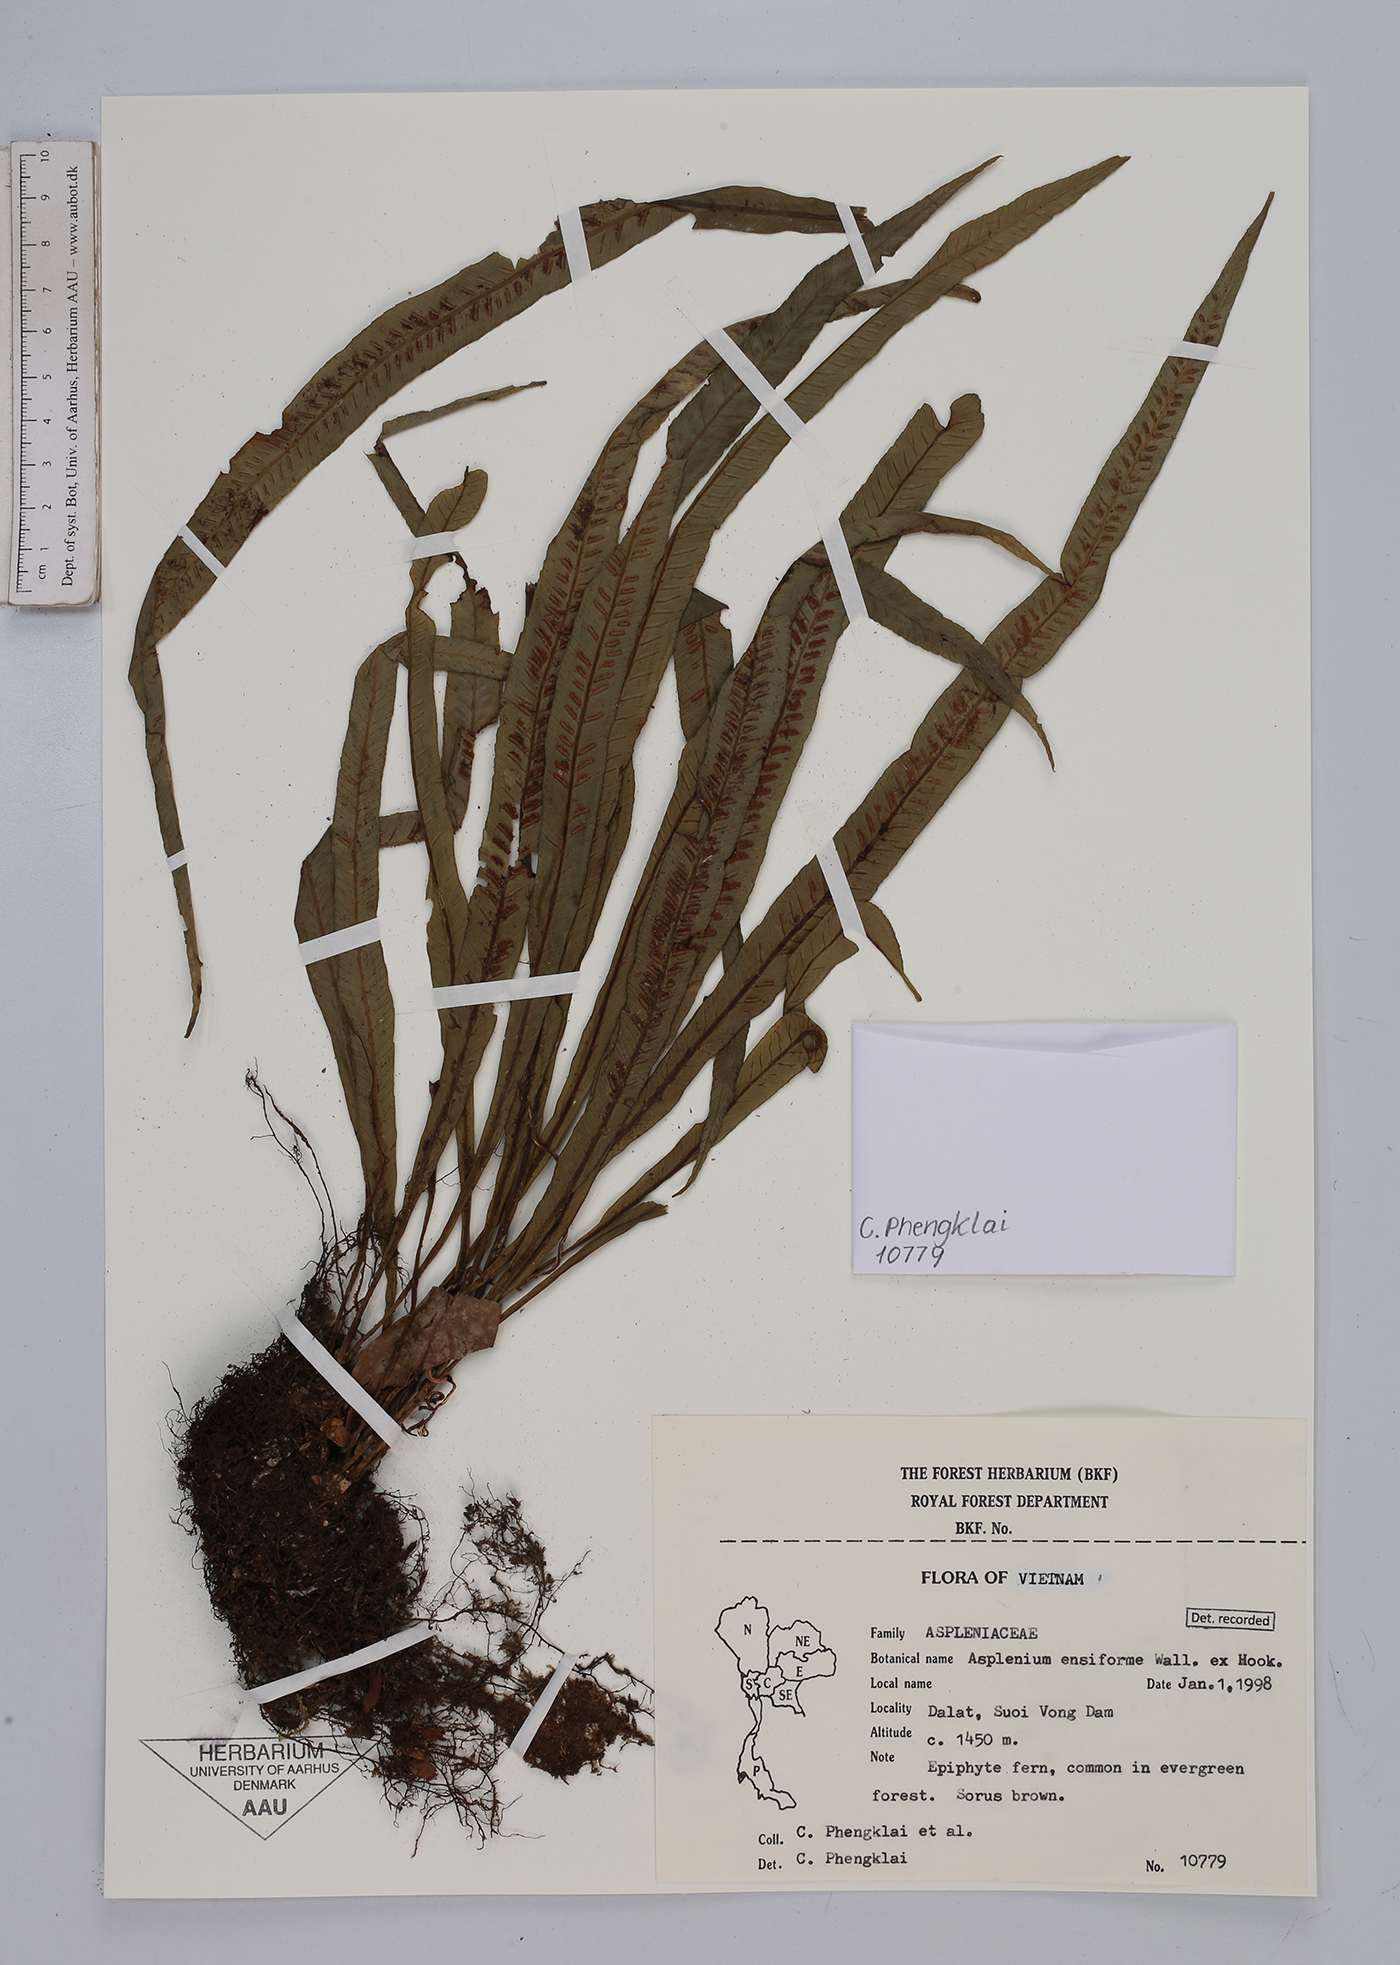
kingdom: Plantae
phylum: Tracheophyta
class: Polypodiopsida
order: Polypodiales
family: Aspleniaceae
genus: Asplenium
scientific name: Asplenium
